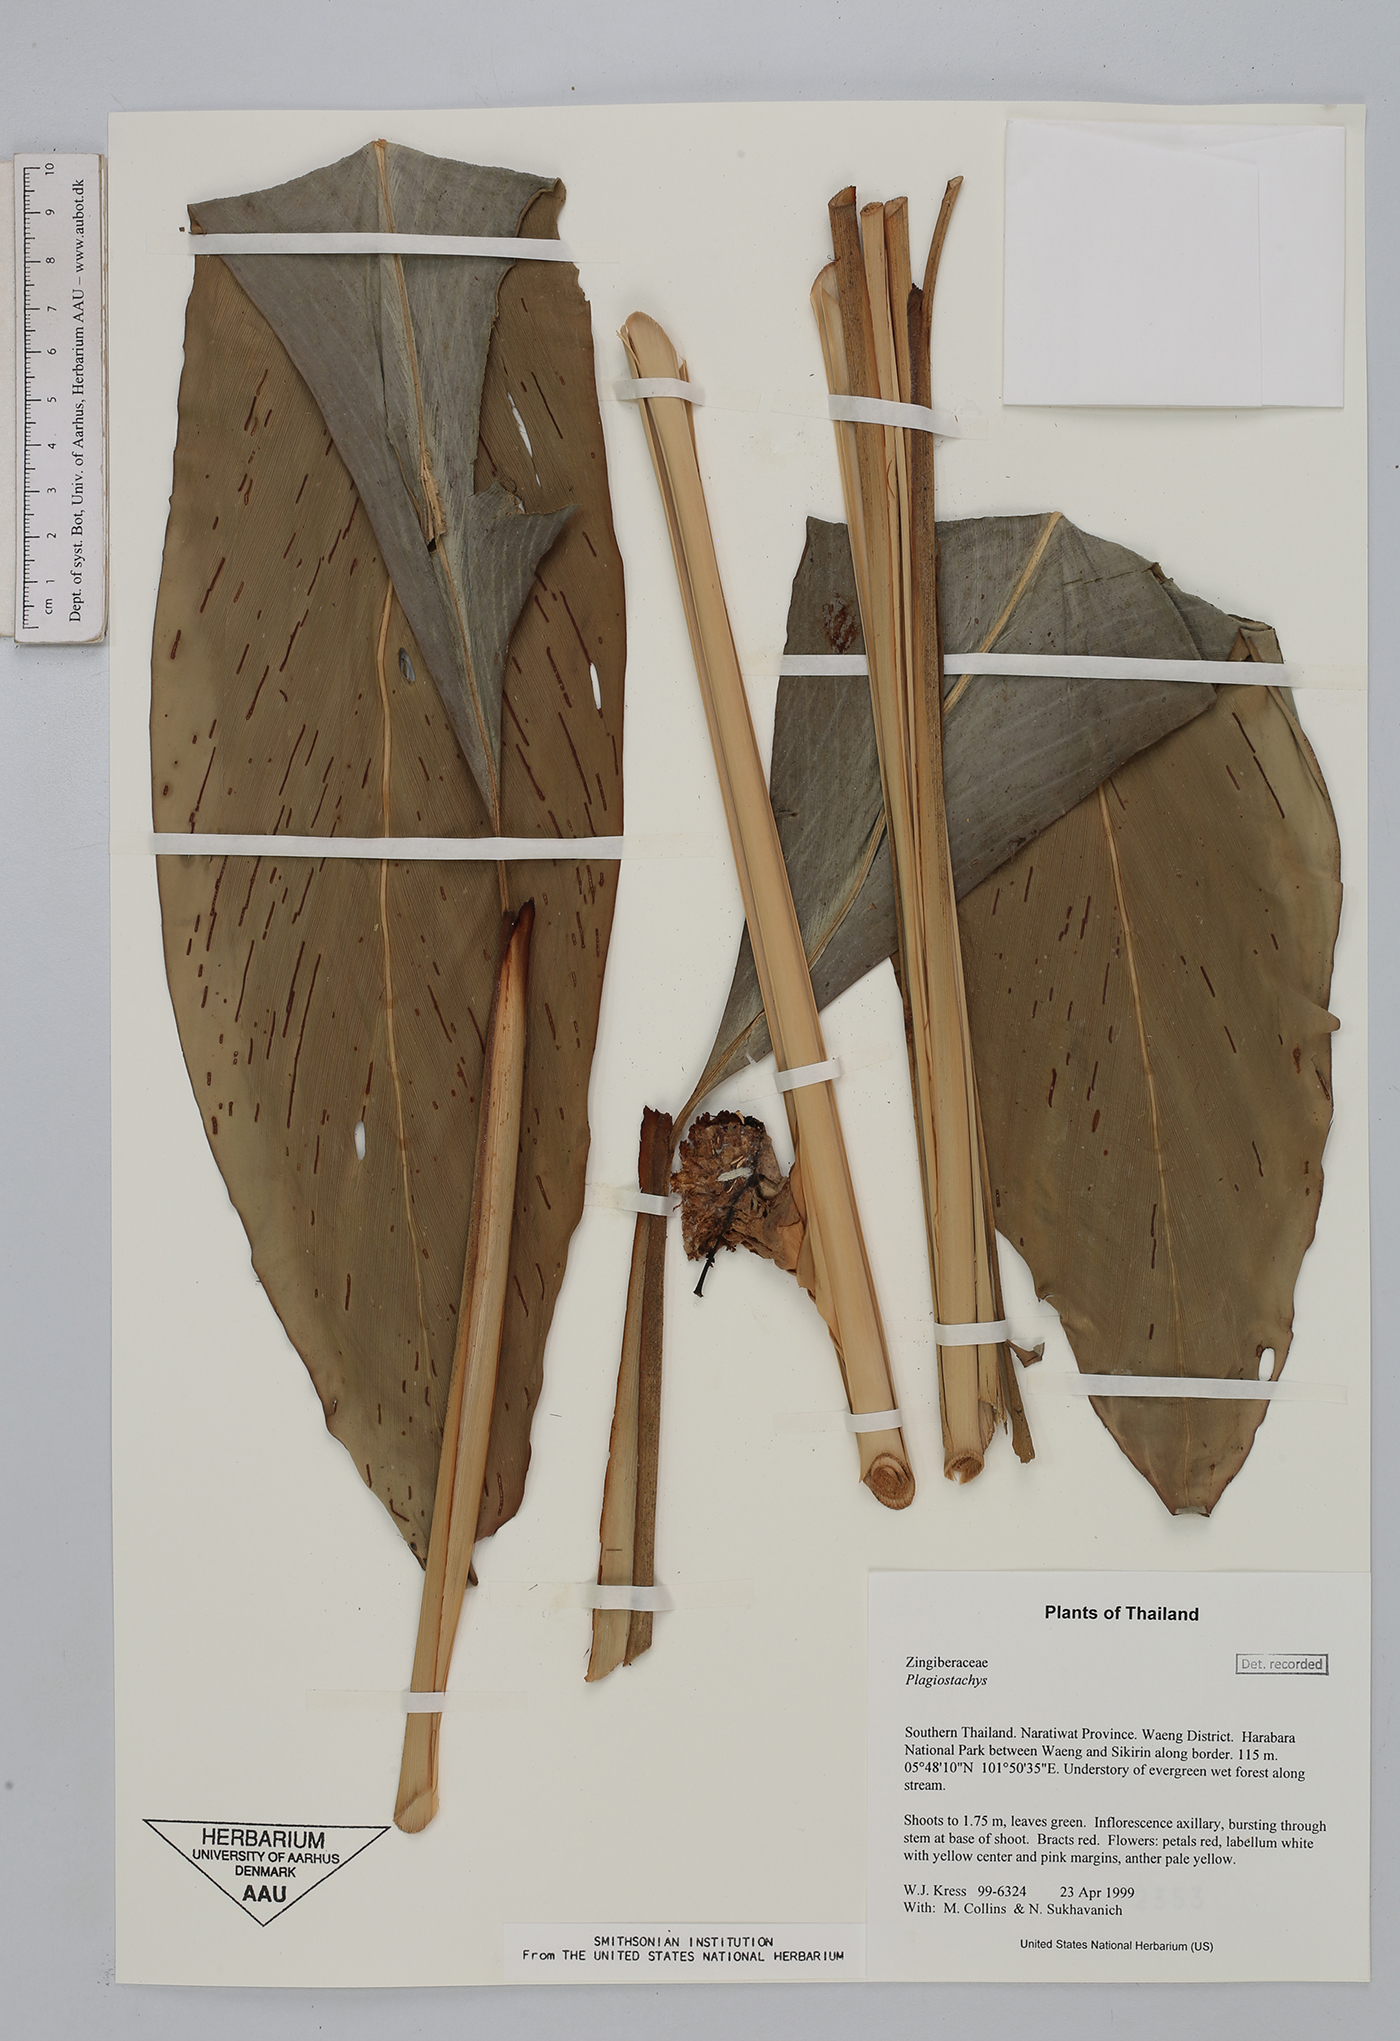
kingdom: Plantae
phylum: Tracheophyta
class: Liliopsida
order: Zingiberales
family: Zingiberaceae
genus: Plagiostachys
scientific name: Plagiostachys
